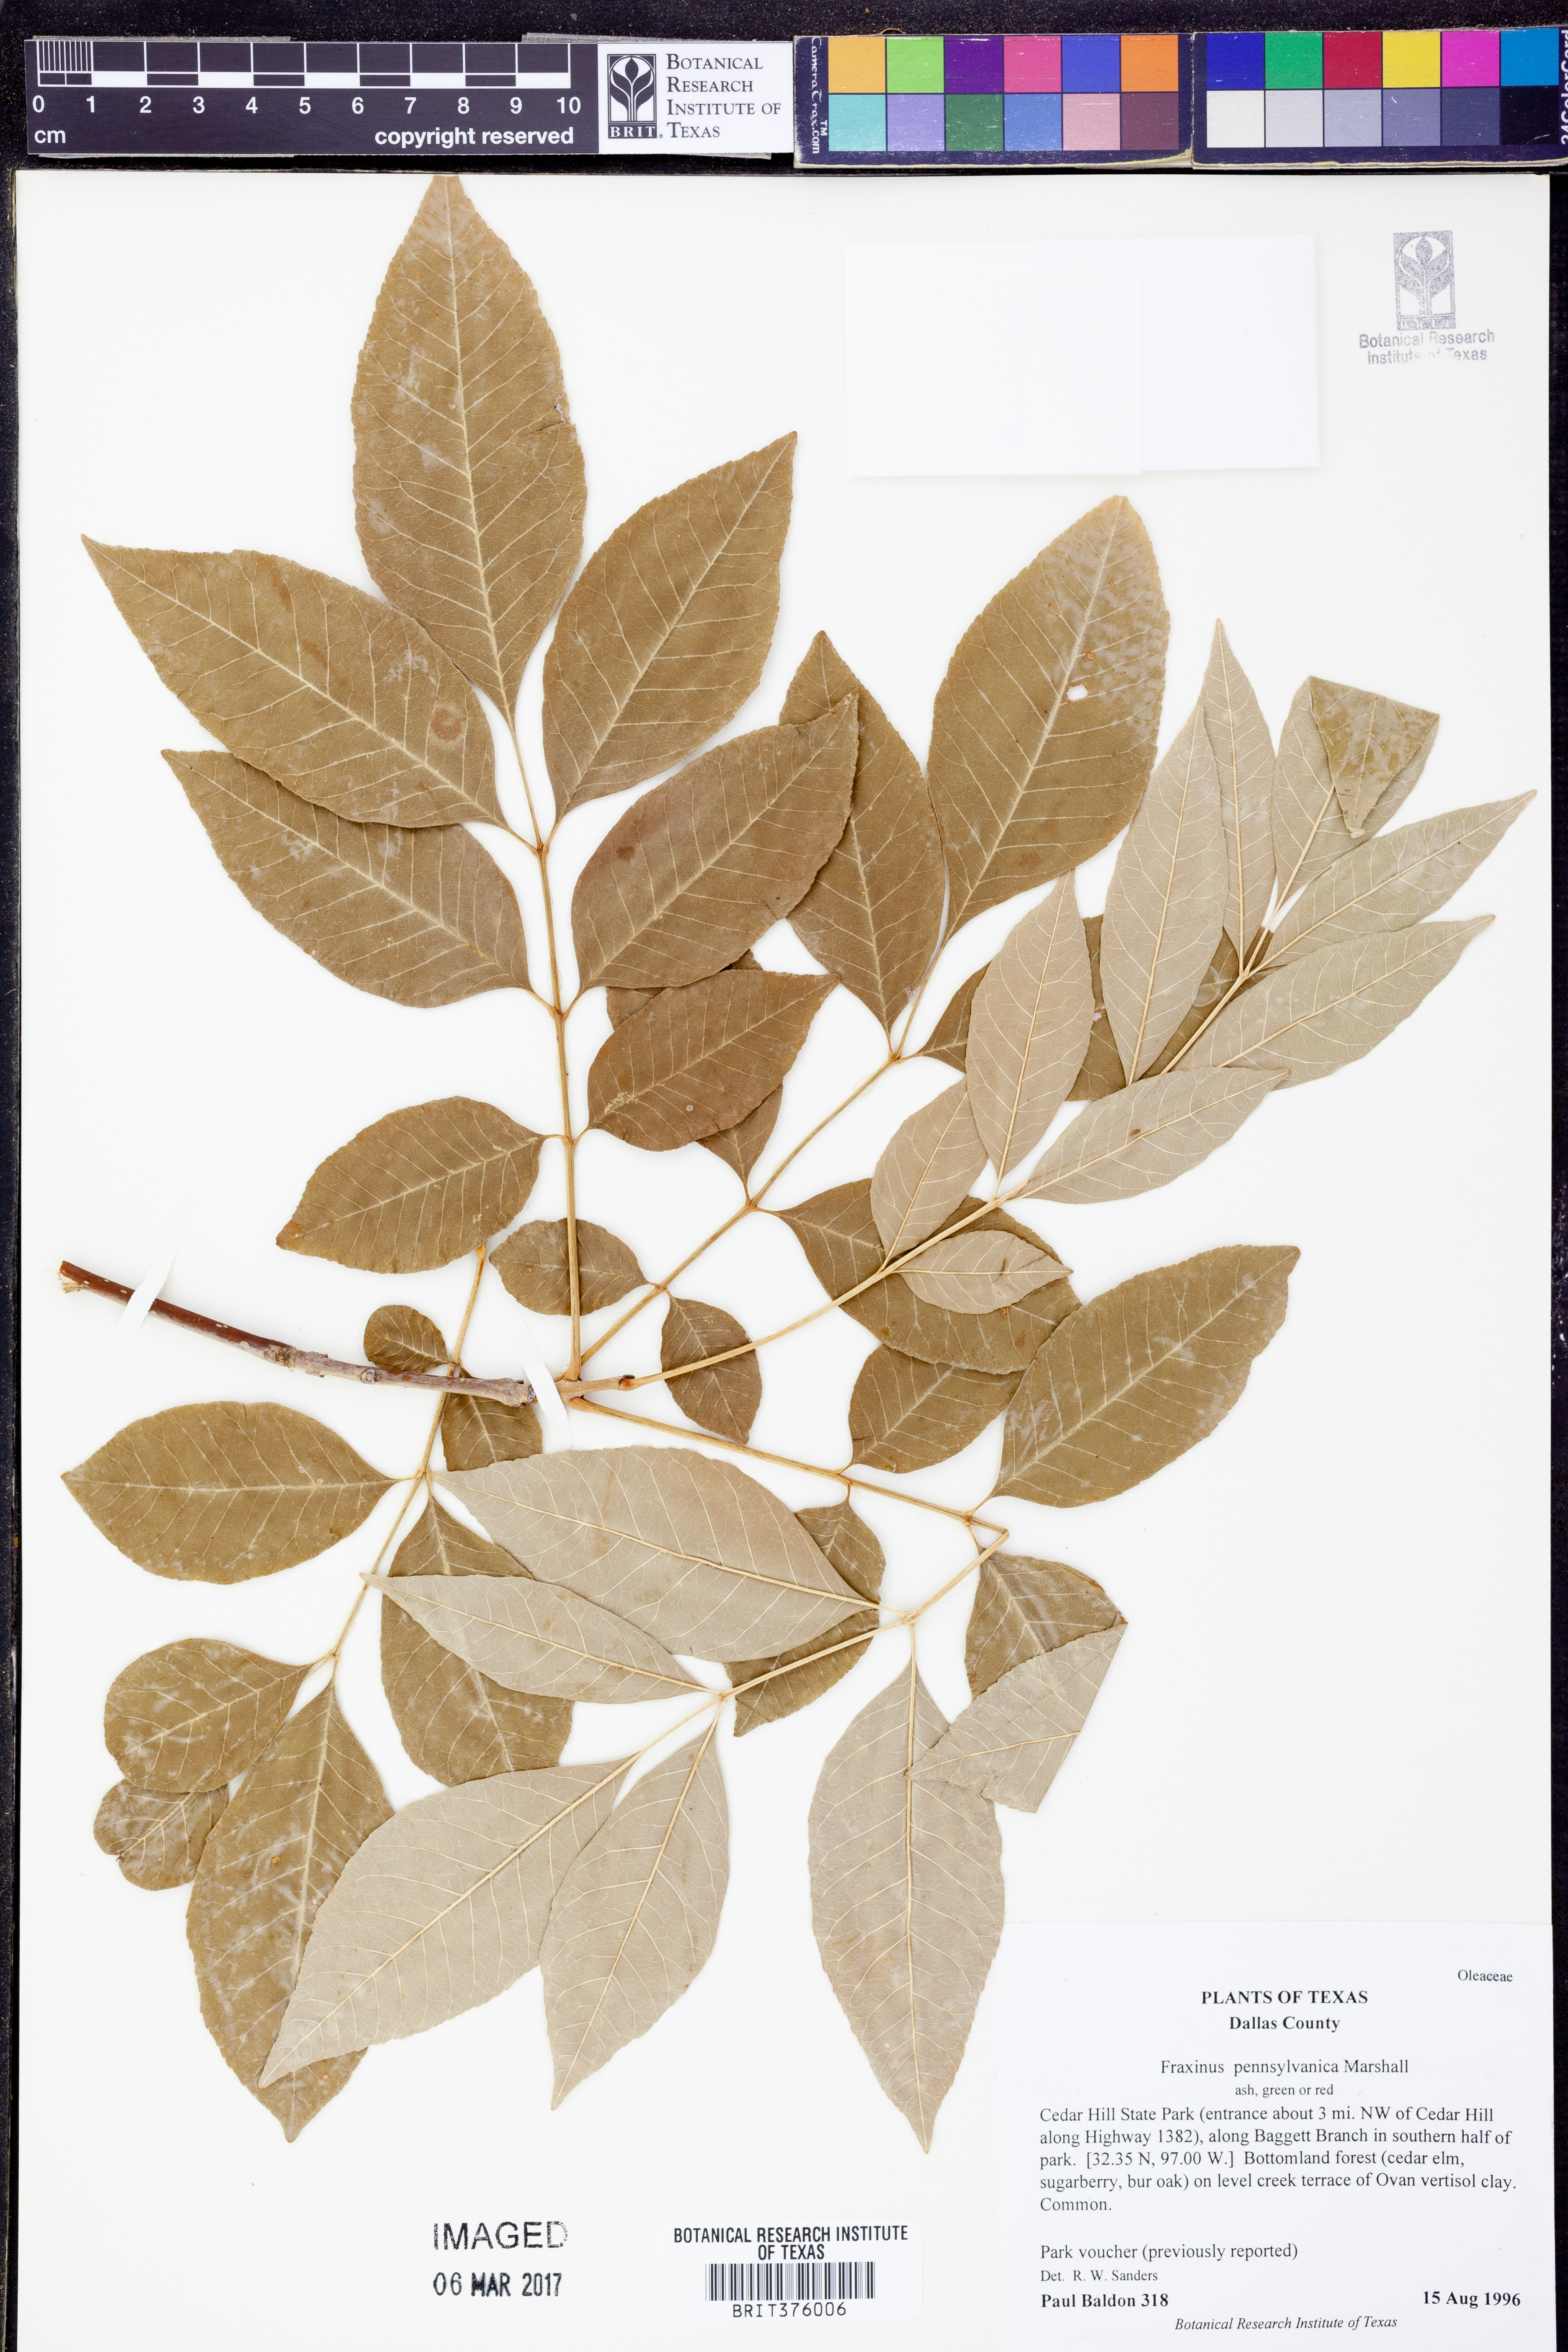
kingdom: Plantae
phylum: Tracheophyta
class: Magnoliopsida
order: Lamiales
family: Oleaceae
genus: Fraxinus
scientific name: Fraxinus pennsylvanica
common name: Green ash
